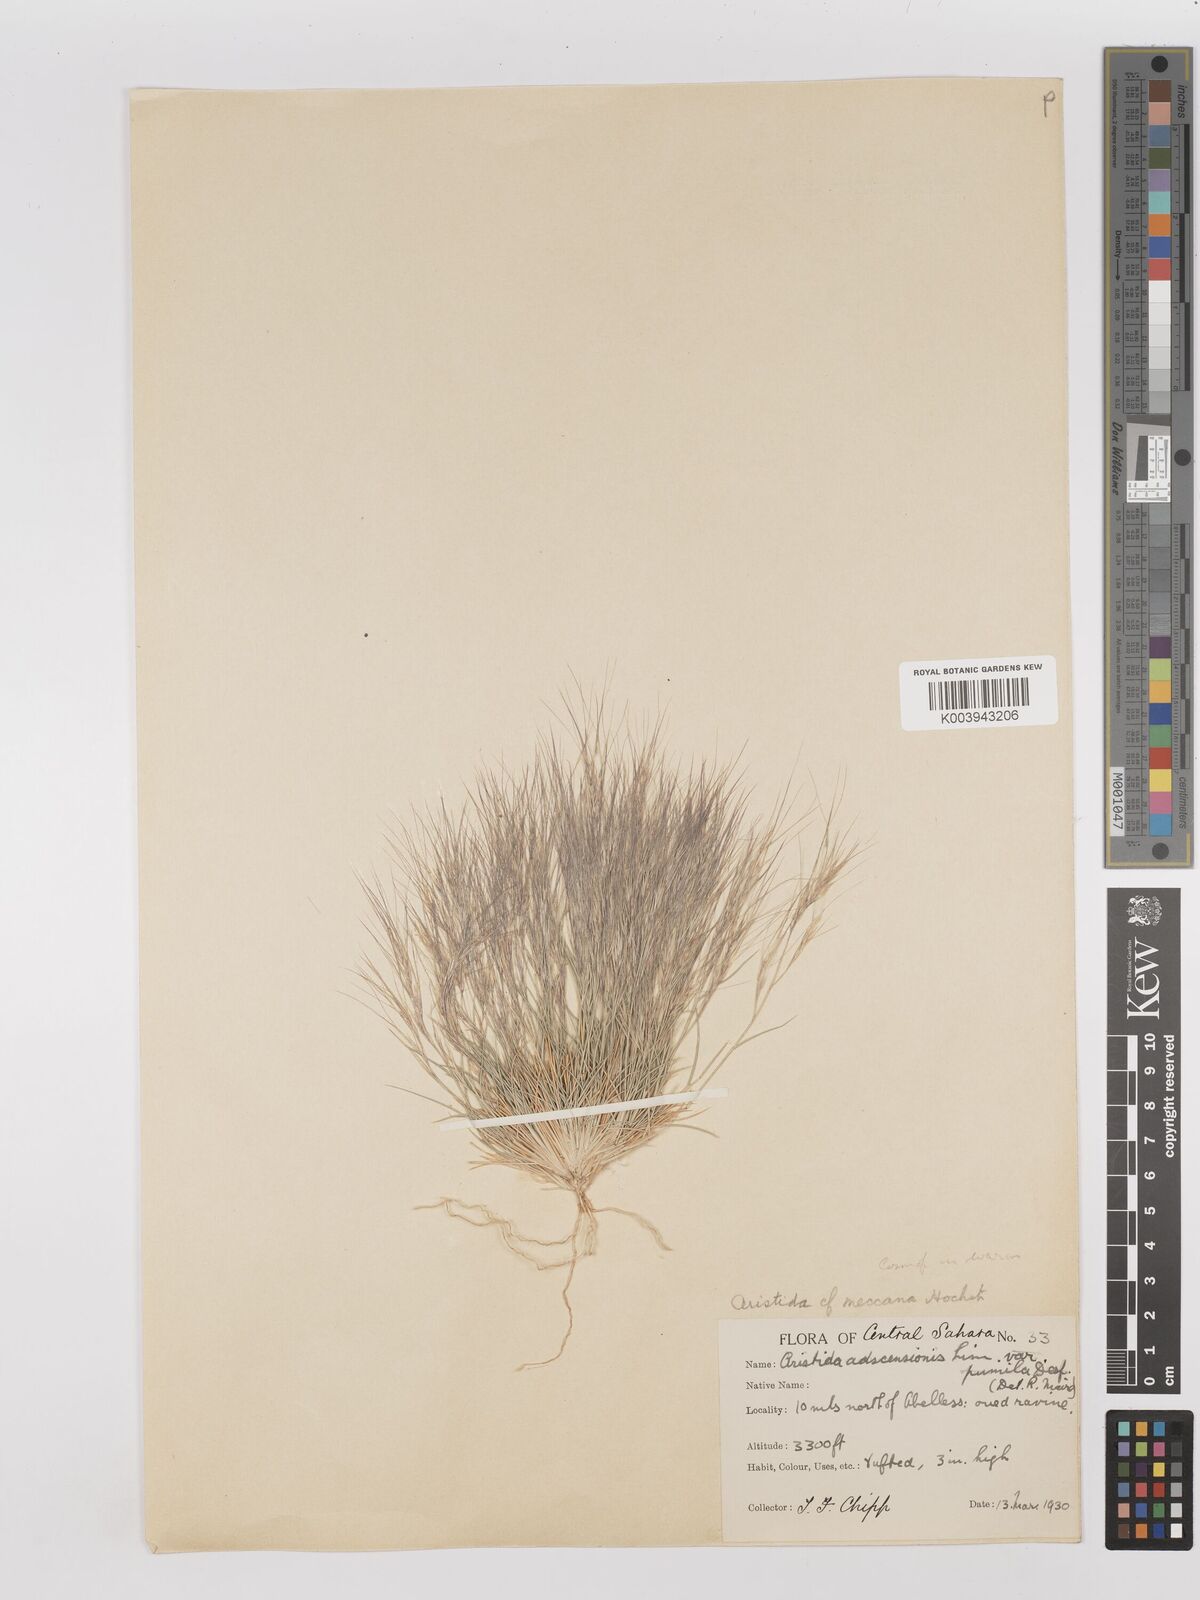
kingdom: Plantae
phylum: Tracheophyta
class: Liliopsida
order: Poales
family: Poaceae
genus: Aristida
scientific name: Aristida mutabilis
